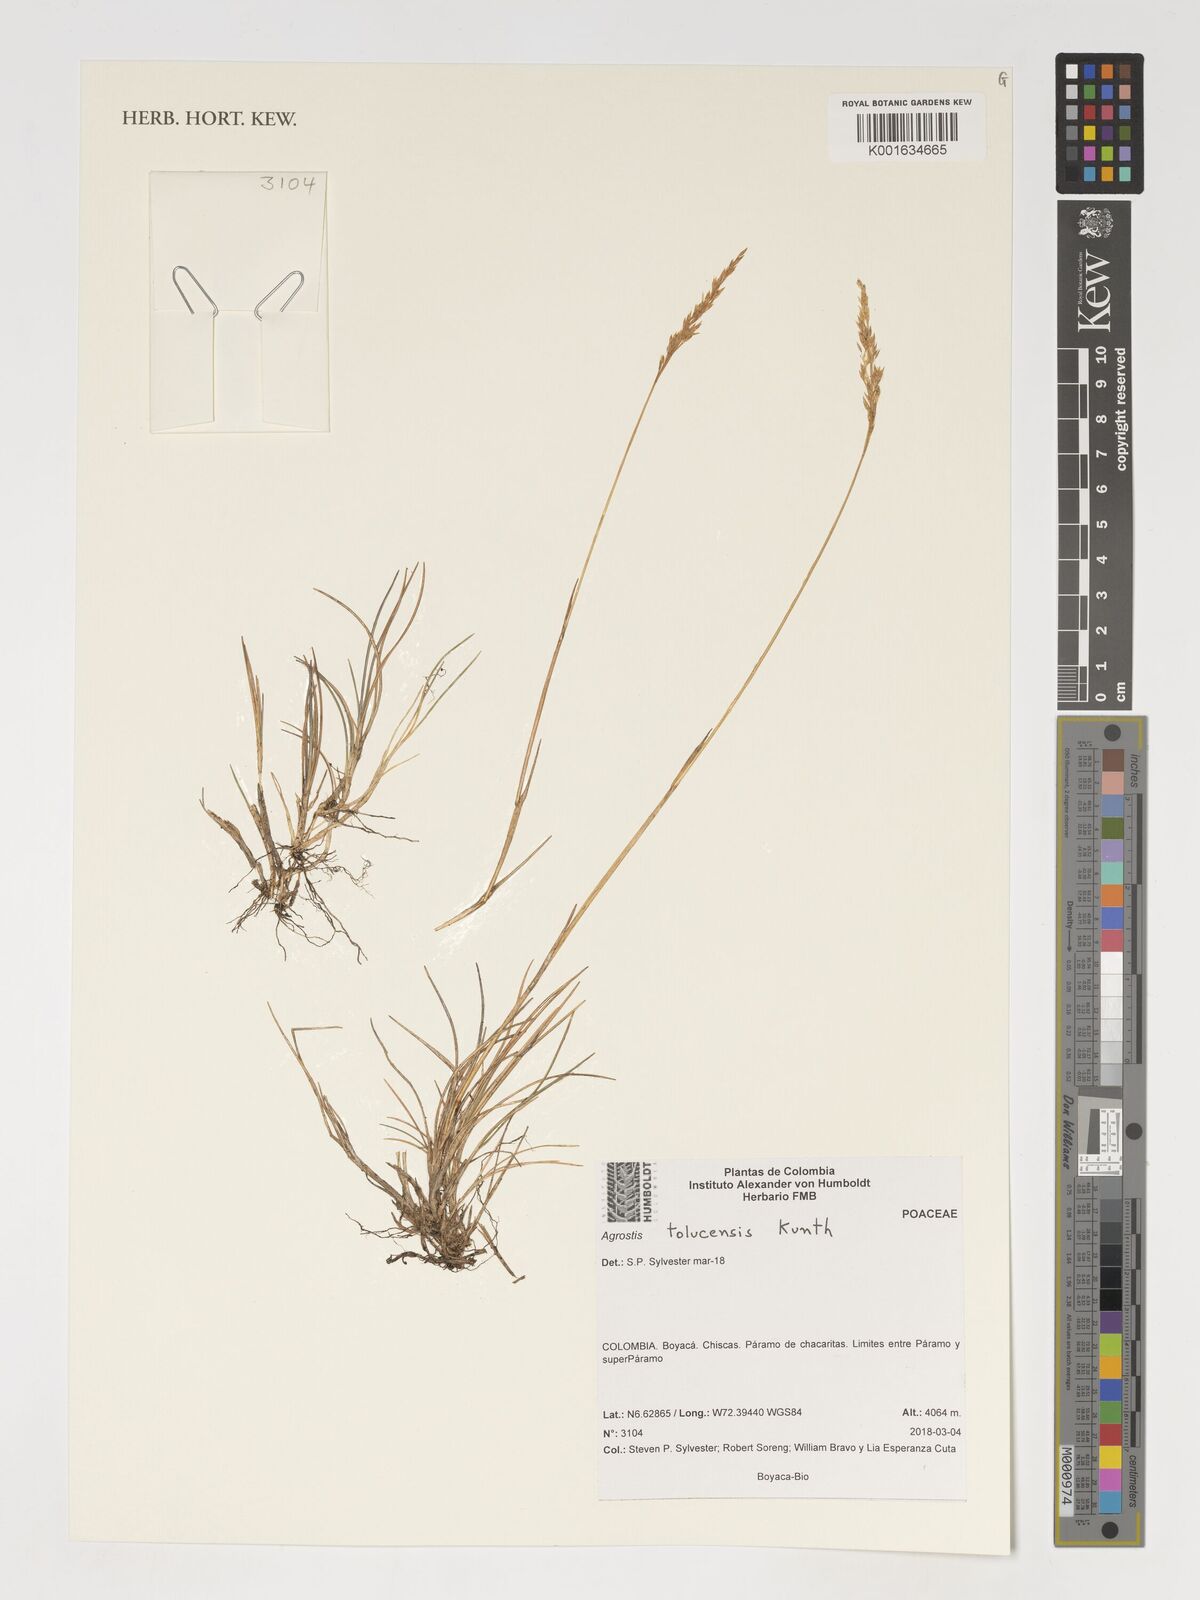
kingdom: Plantae
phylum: Tracheophyta
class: Liliopsida
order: Poales
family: Poaceae
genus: Agrostis
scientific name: Agrostis tolucensis
